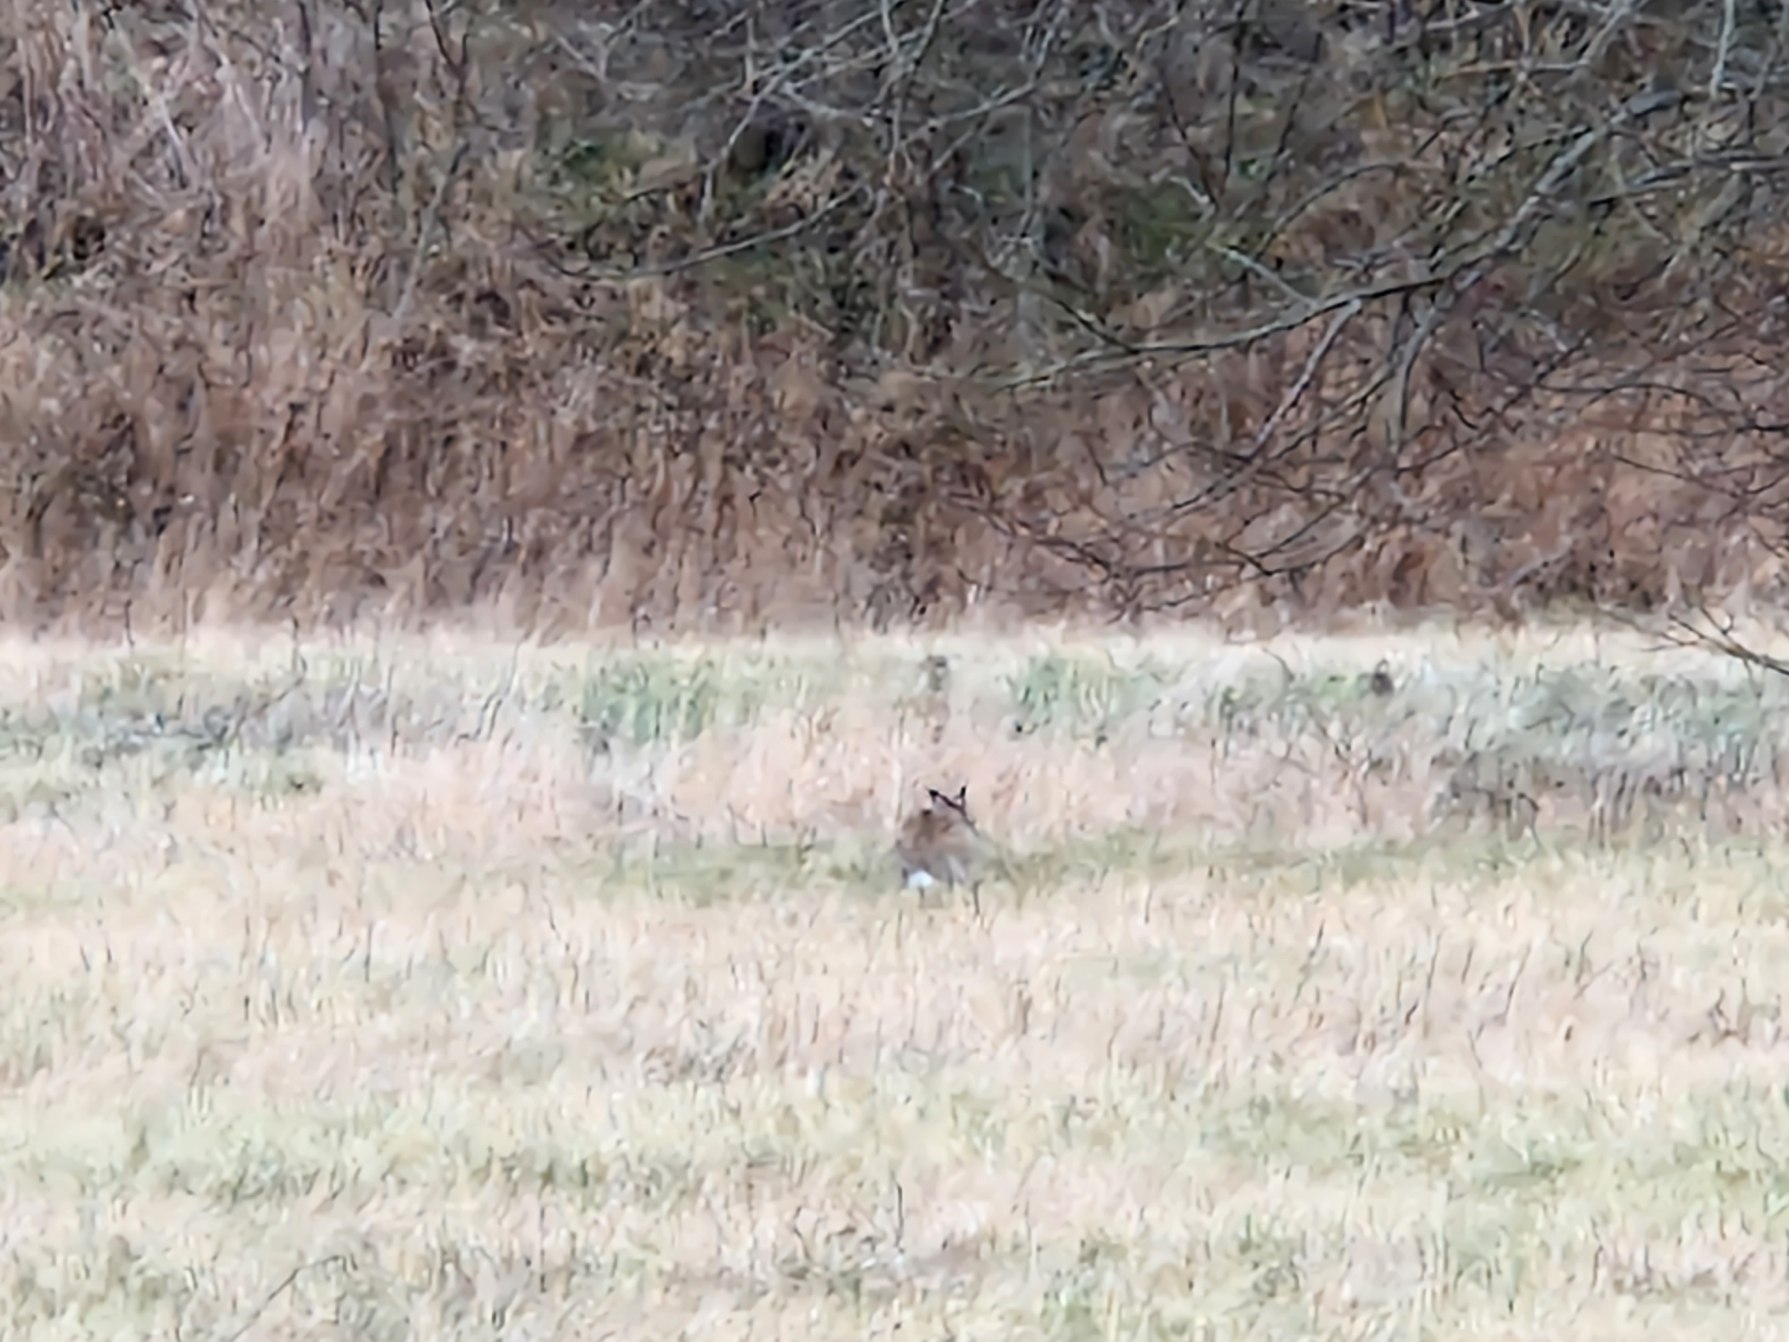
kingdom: Animalia
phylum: Chordata
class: Mammalia
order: Lagomorpha
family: Leporidae
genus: Lepus
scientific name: Lepus europaeus
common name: Hare
